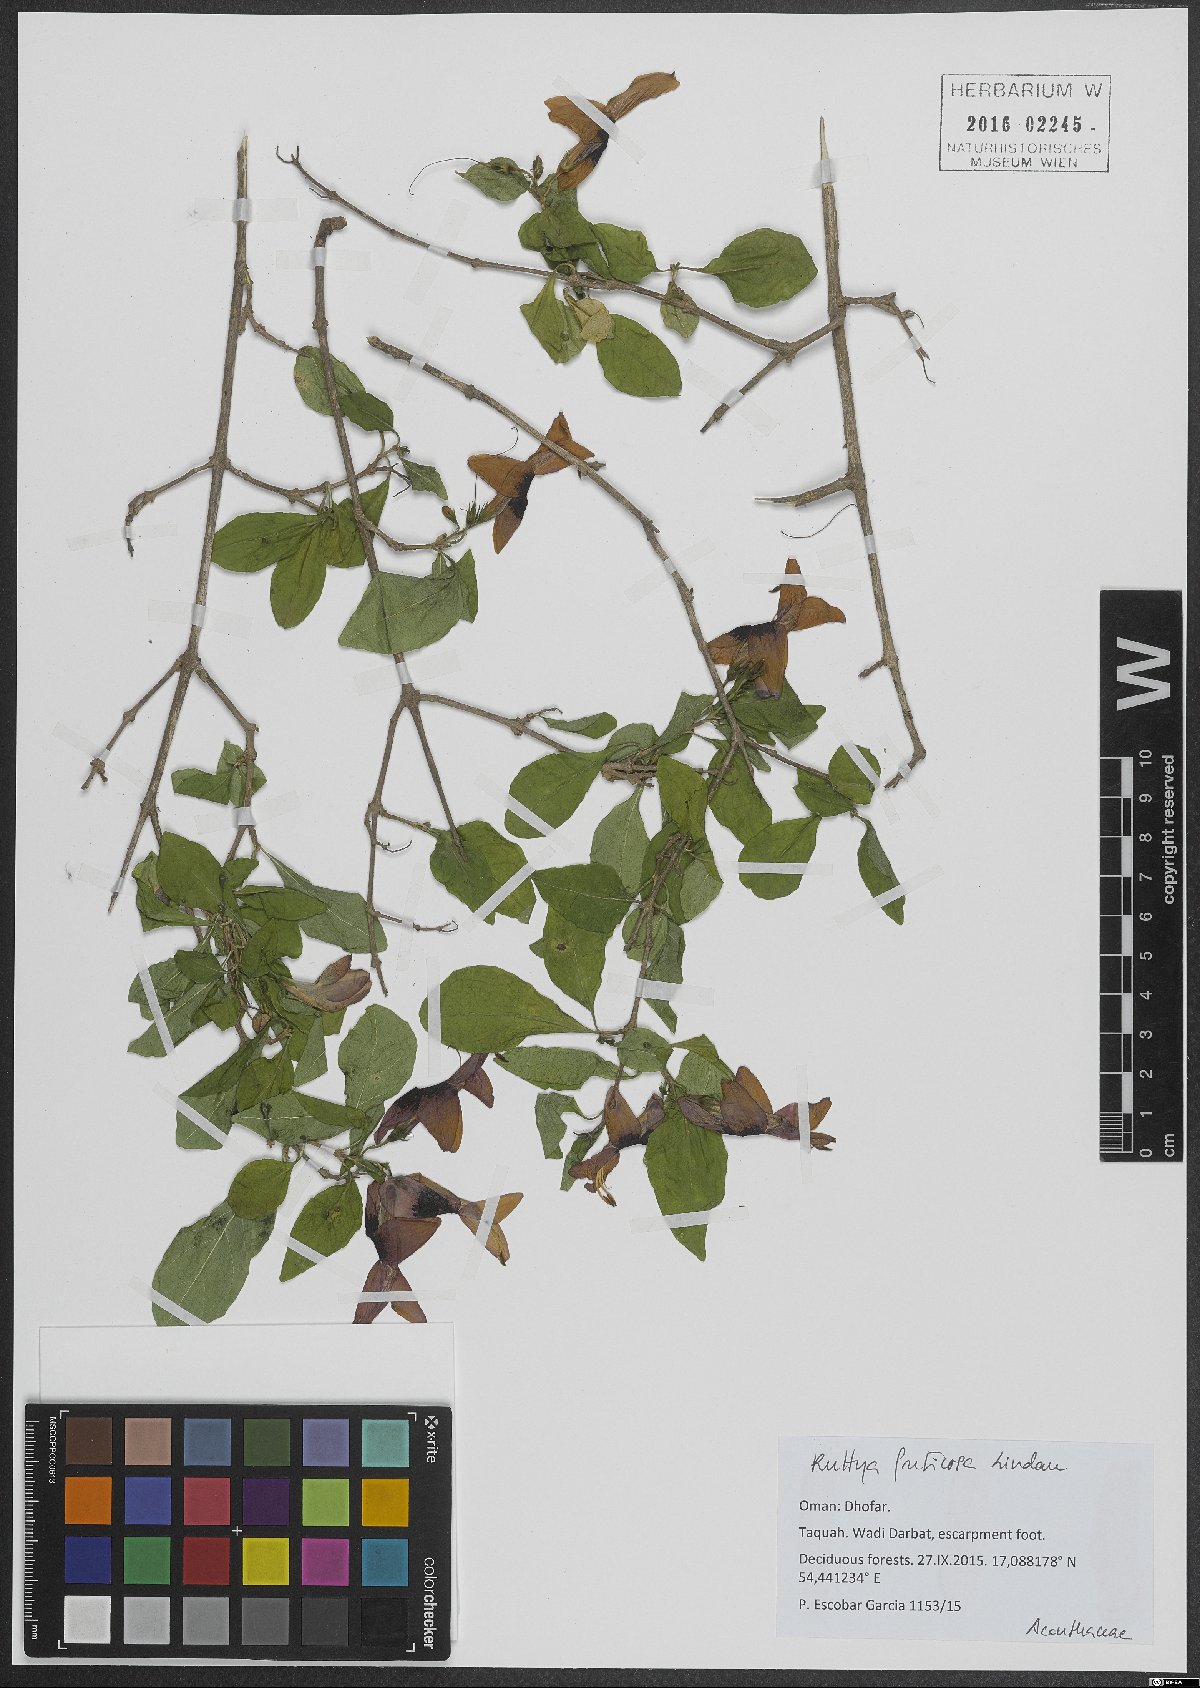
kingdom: Plantae
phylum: Tracheophyta
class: Magnoliopsida
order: Lamiales
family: Acanthaceae
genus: Ruttya
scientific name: Ruttya fruticosa
